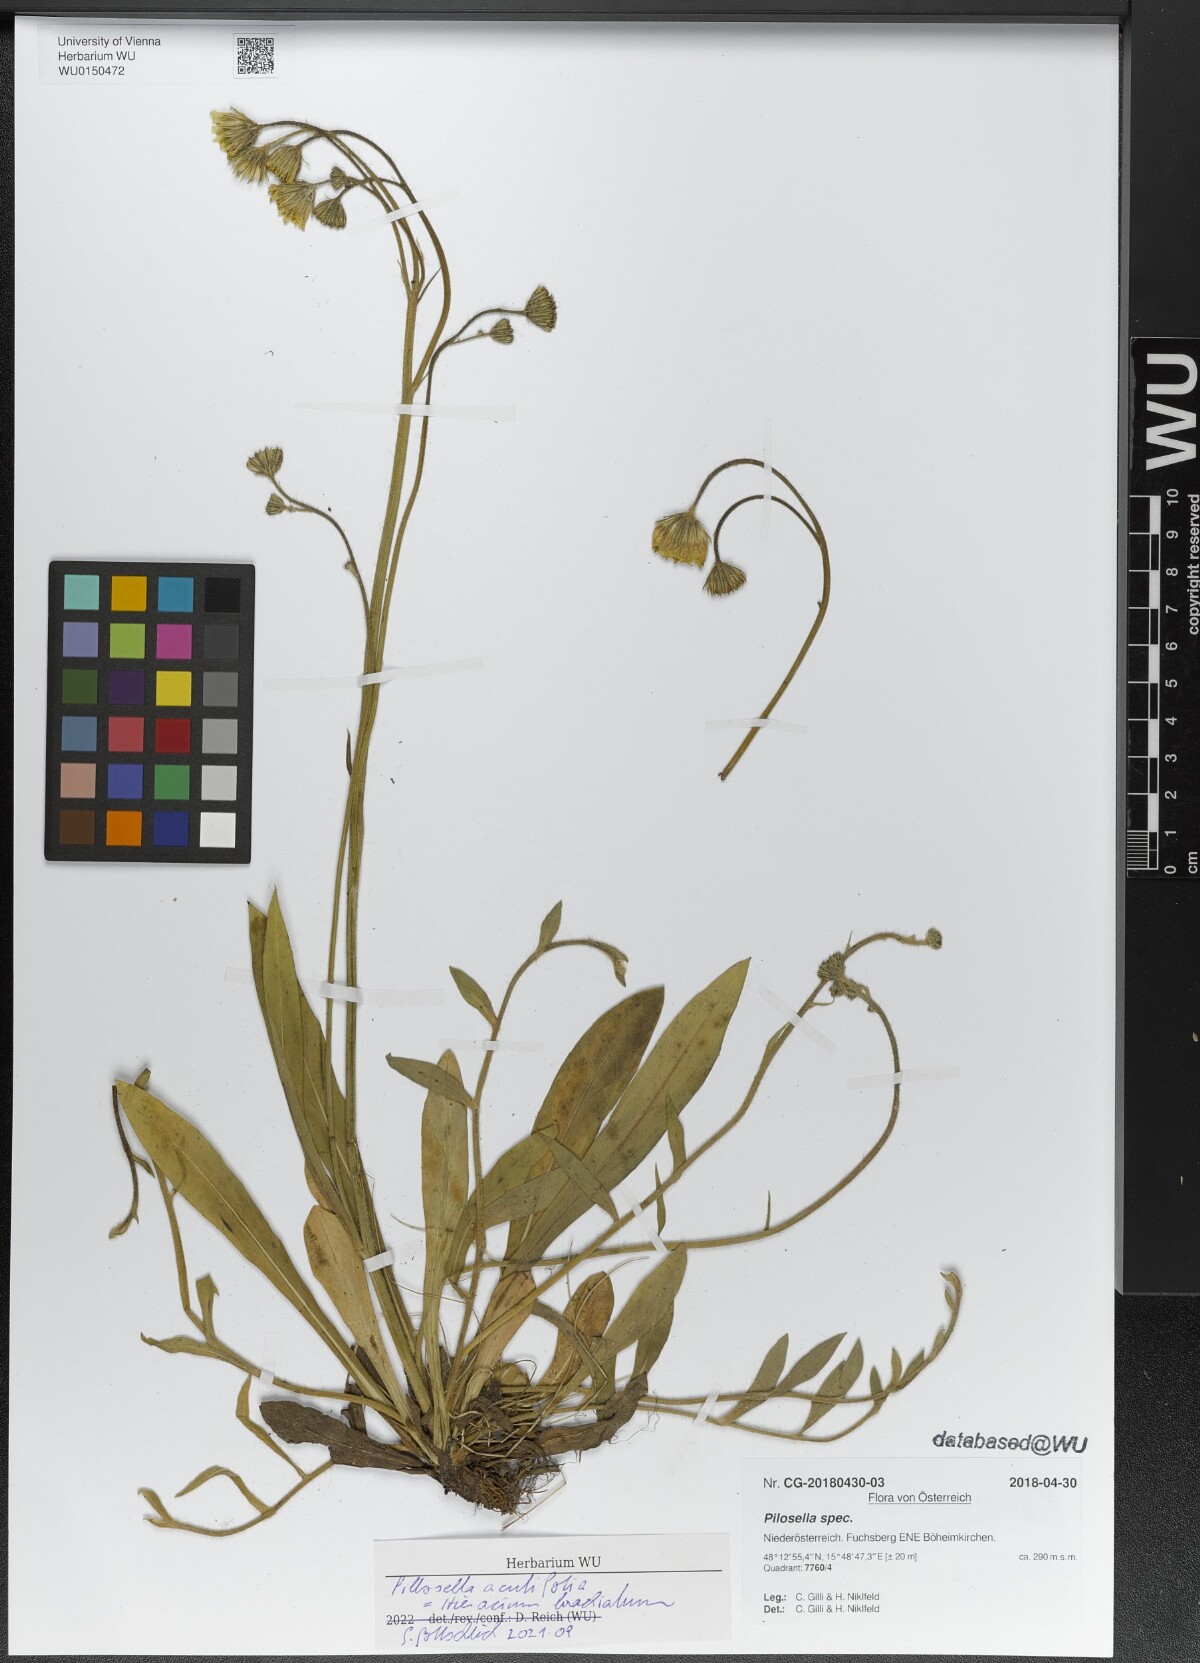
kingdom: Plantae
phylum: Tracheophyta
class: Magnoliopsida
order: Asterales
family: Asteraceae
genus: Pilosella
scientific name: Pilosella acutifolia
